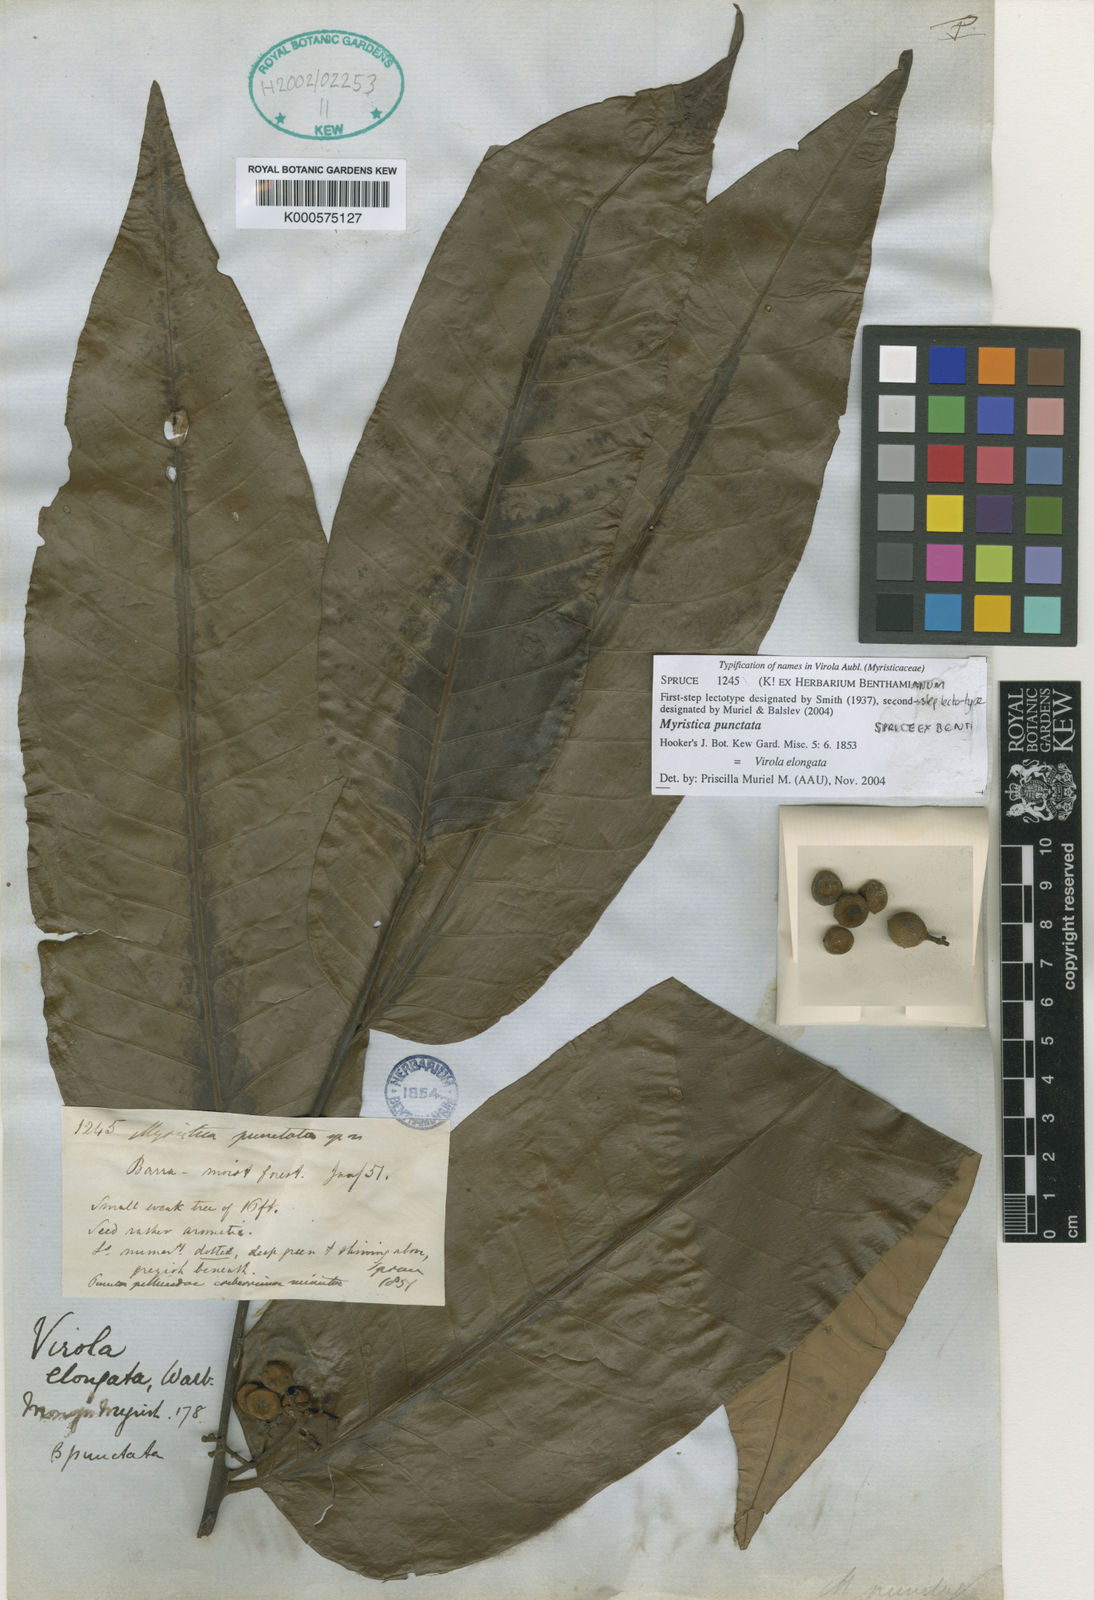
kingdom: Plantae
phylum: Tracheophyta
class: Magnoliopsida
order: Magnoliales
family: Myristicaceae
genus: Virola
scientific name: Virola elongata
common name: Sacred virola
